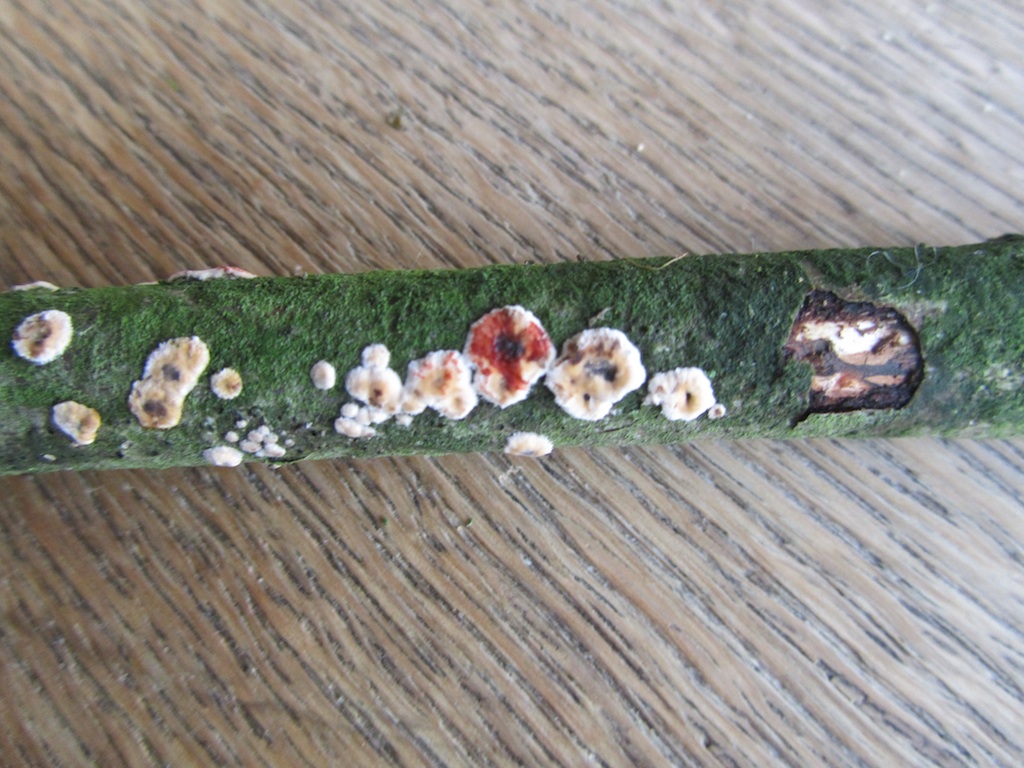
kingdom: Fungi
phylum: Basidiomycota
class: Agaricomycetes
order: Russulales
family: Stereaceae
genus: Stereum
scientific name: Stereum rugosum
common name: rynket lædersvamp
